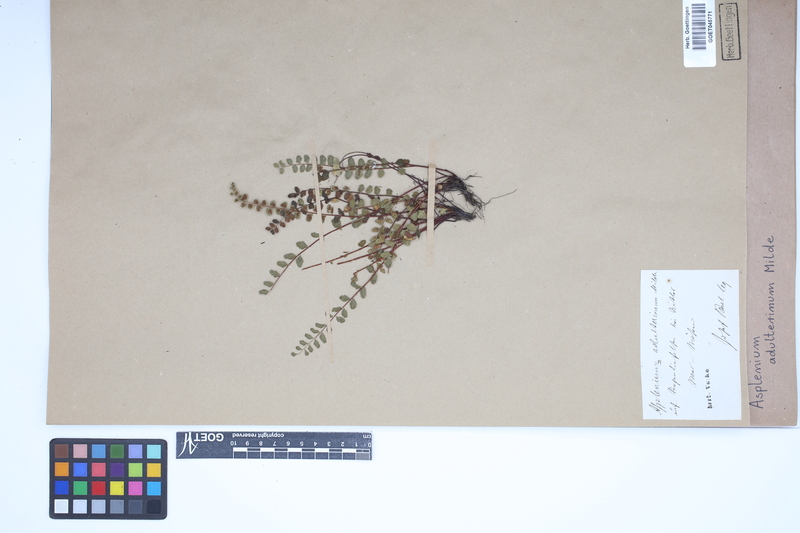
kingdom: Plantae
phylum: Tracheophyta
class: Polypodiopsida
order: Polypodiales
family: Aspleniaceae
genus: Asplenium
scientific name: Asplenium adulterinum
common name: Adulterated spleenwort
